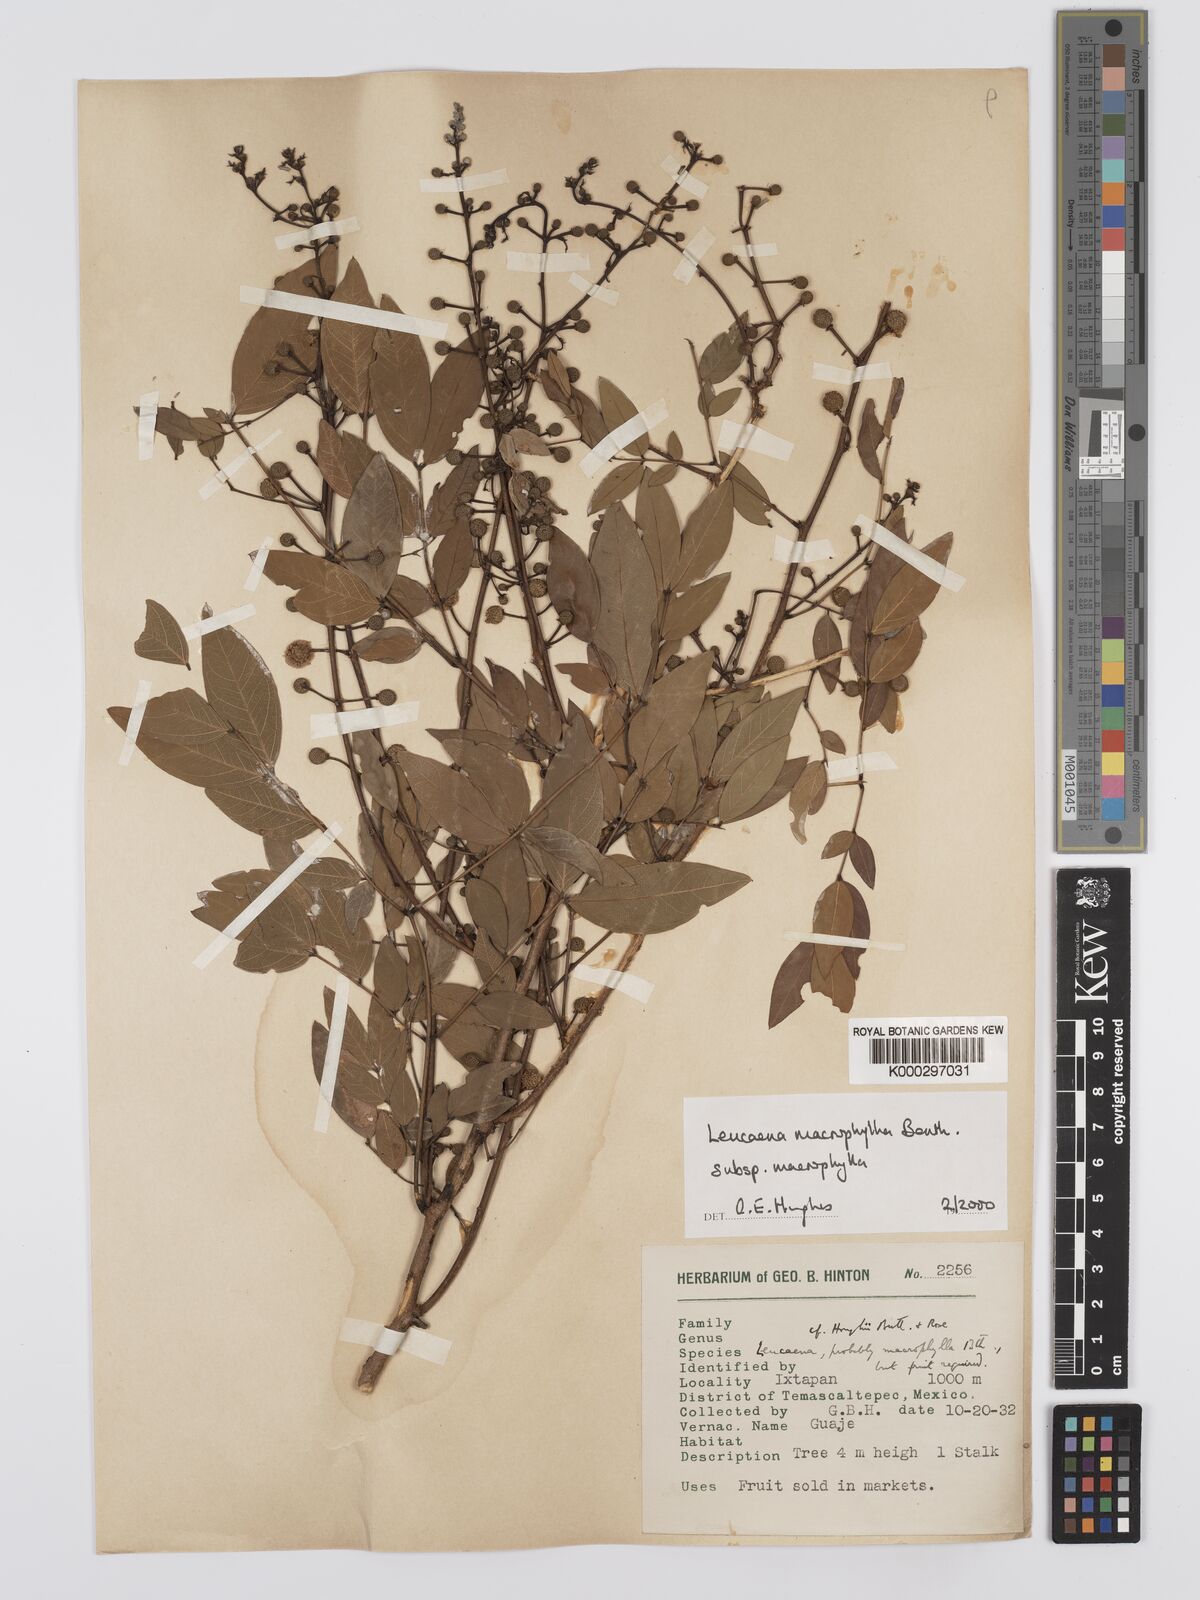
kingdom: Plantae
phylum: Tracheophyta
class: Magnoliopsida
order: Fabales
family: Fabaceae
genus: Leucaena
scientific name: Leucaena macrophylla
